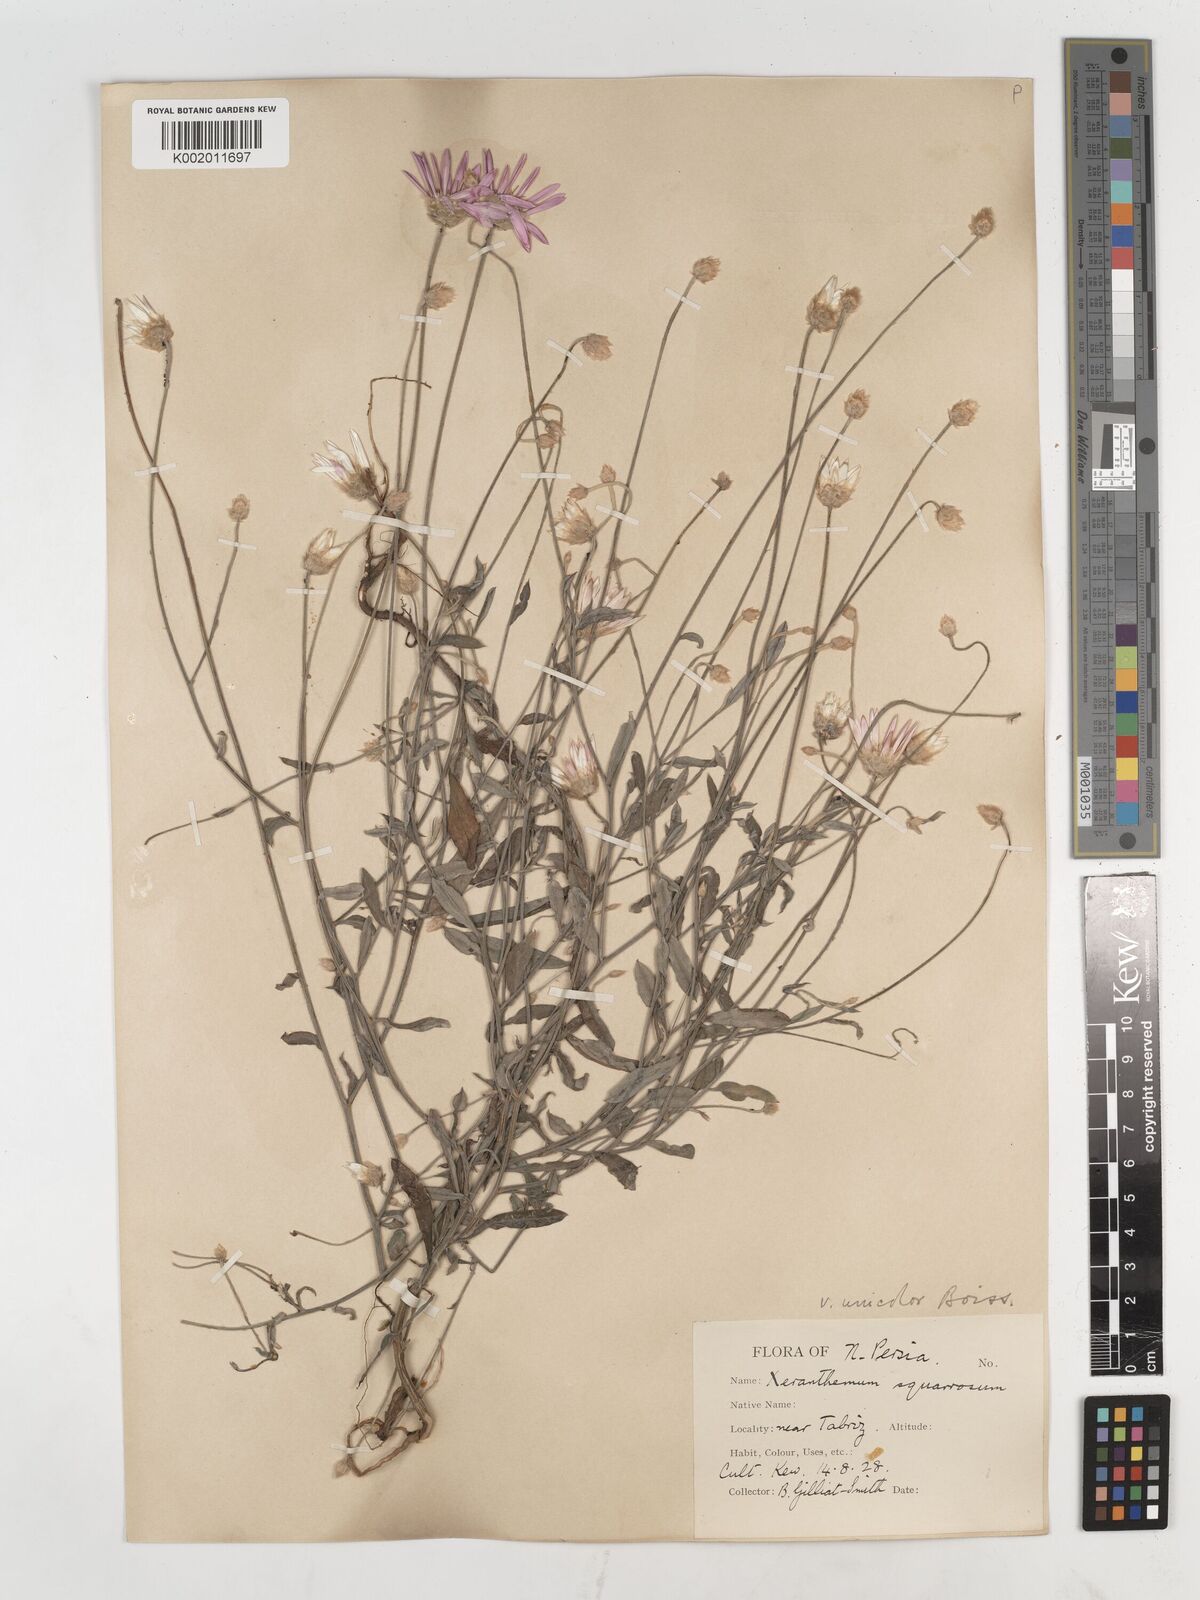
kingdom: Plantae
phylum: Tracheophyta
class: Magnoliopsida
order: Asterales
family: Asteraceae
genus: Xeranthemum
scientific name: Xeranthemum squarrosum
